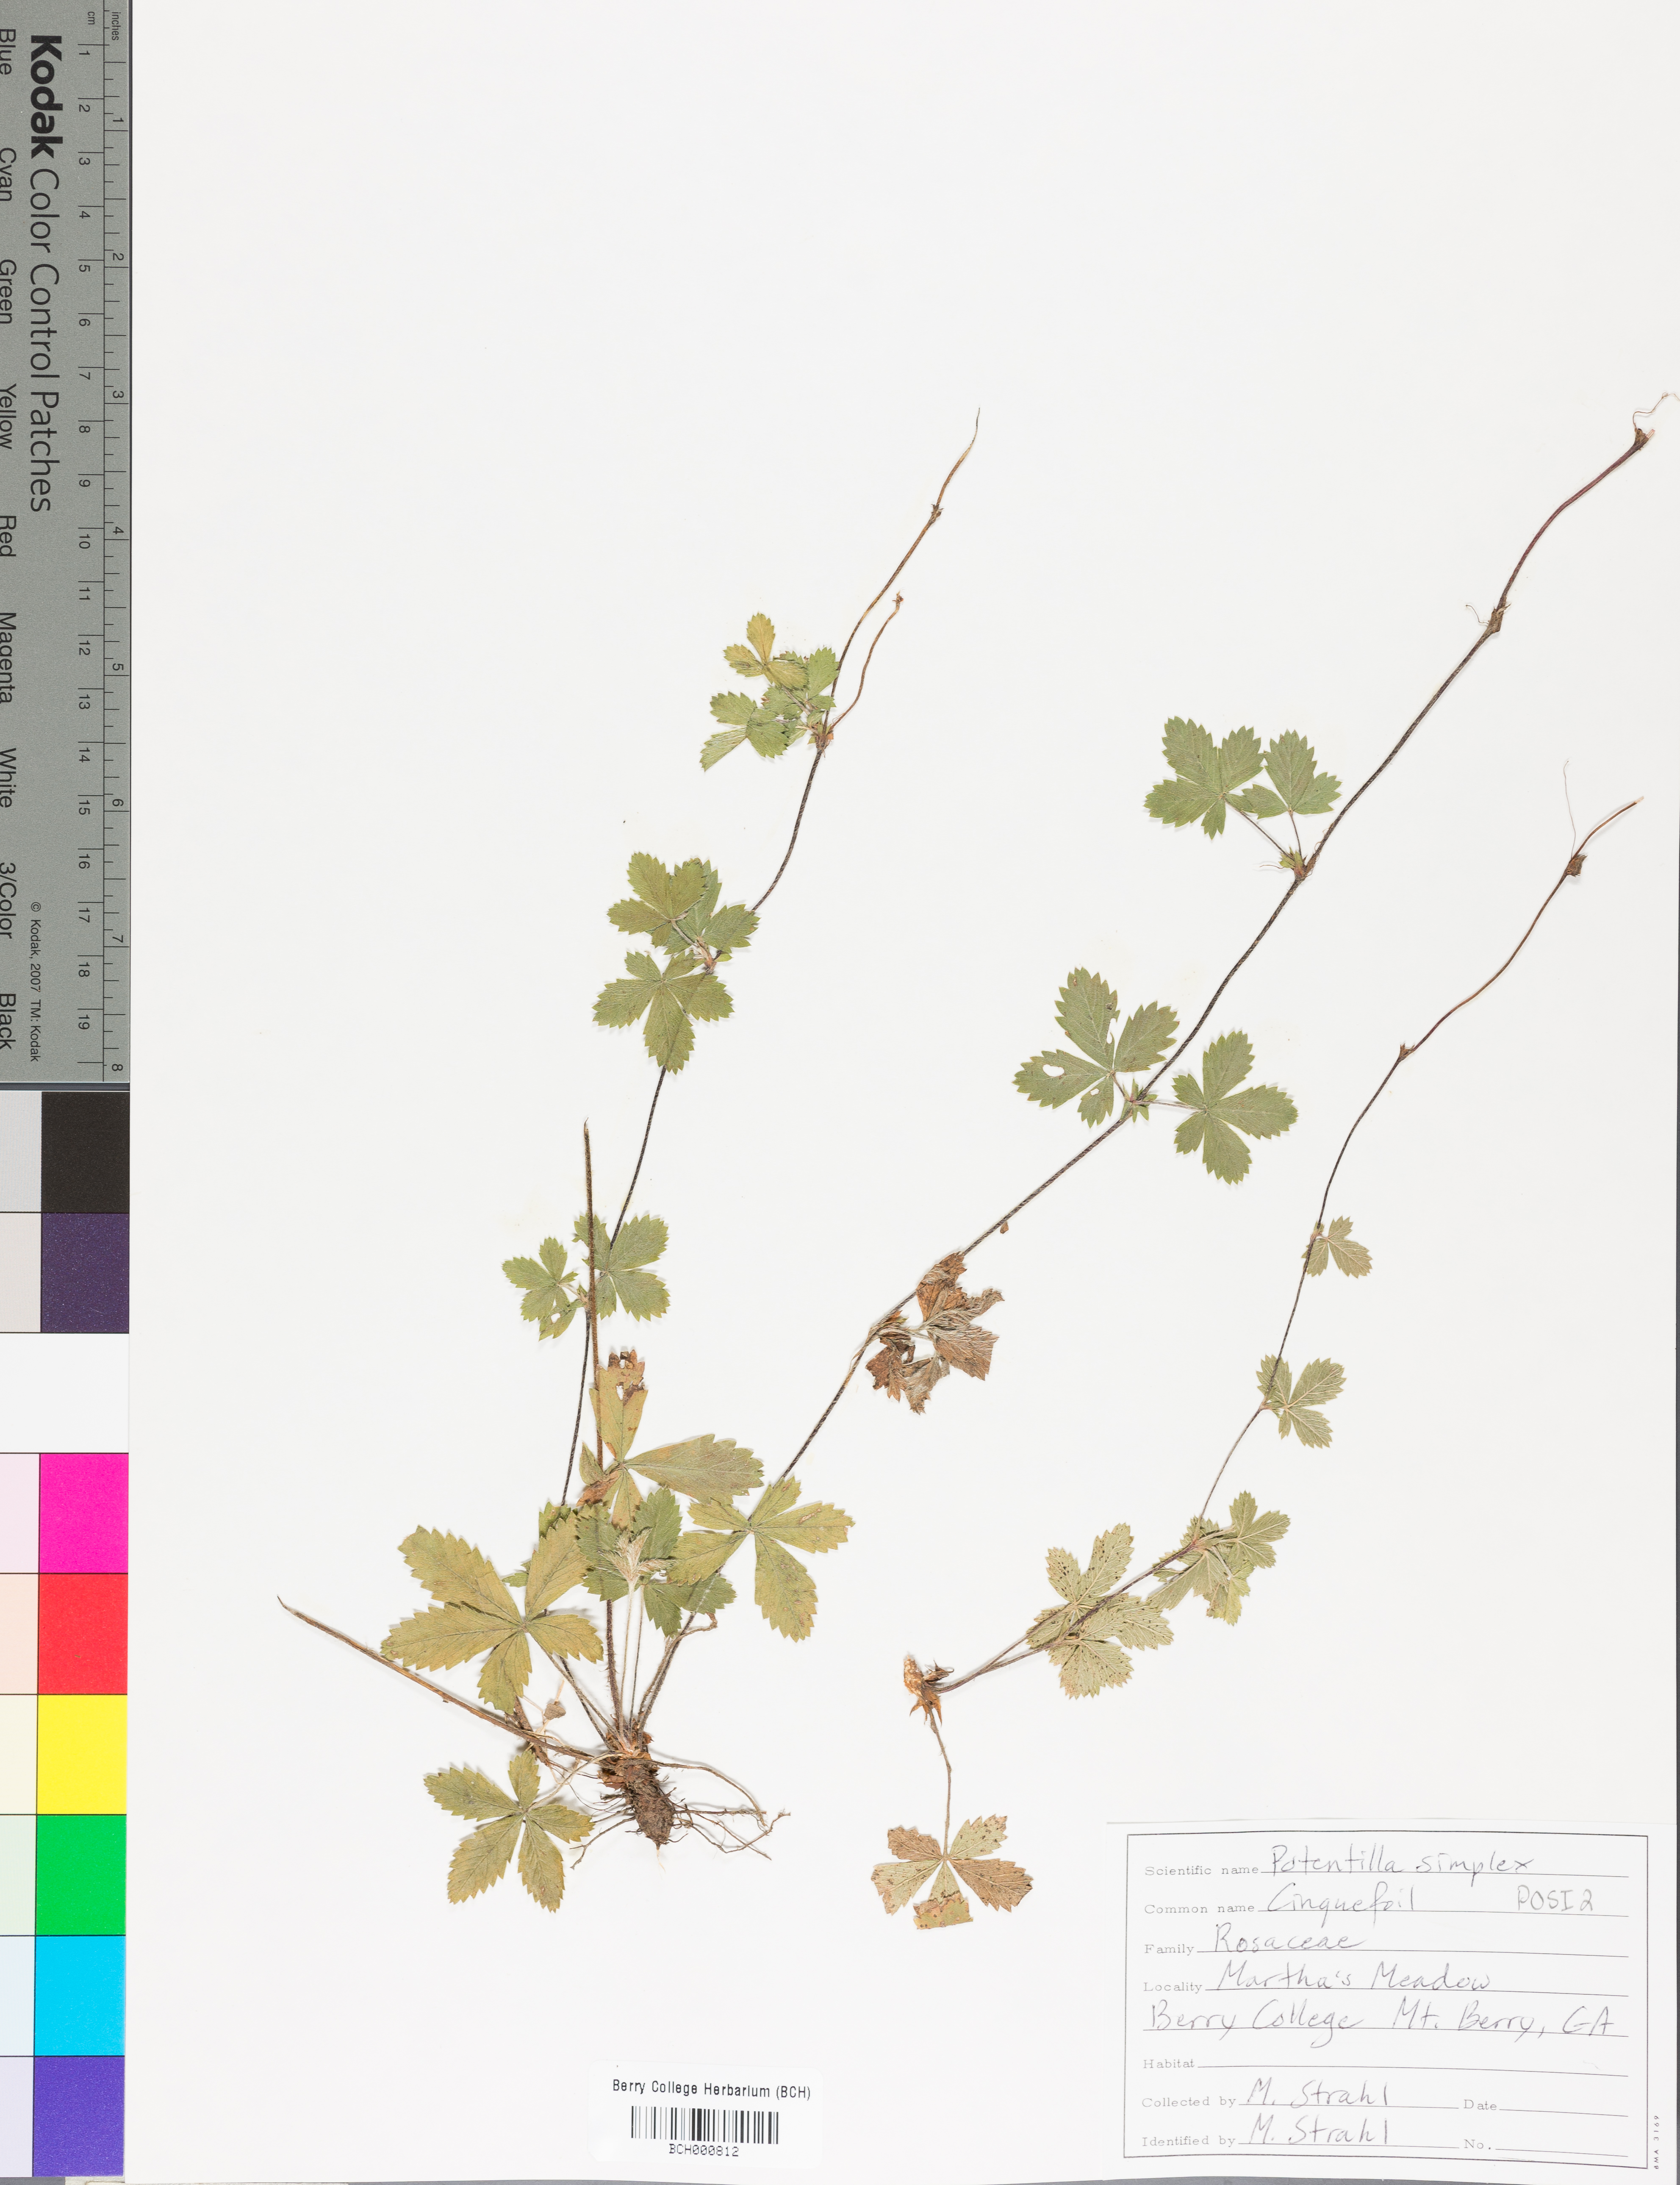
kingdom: Plantae
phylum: Tracheophyta
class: Magnoliopsida
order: Rosales
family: Rosaceae
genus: Potentilla
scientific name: Potentilla simplex
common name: Old field cinquefoil
